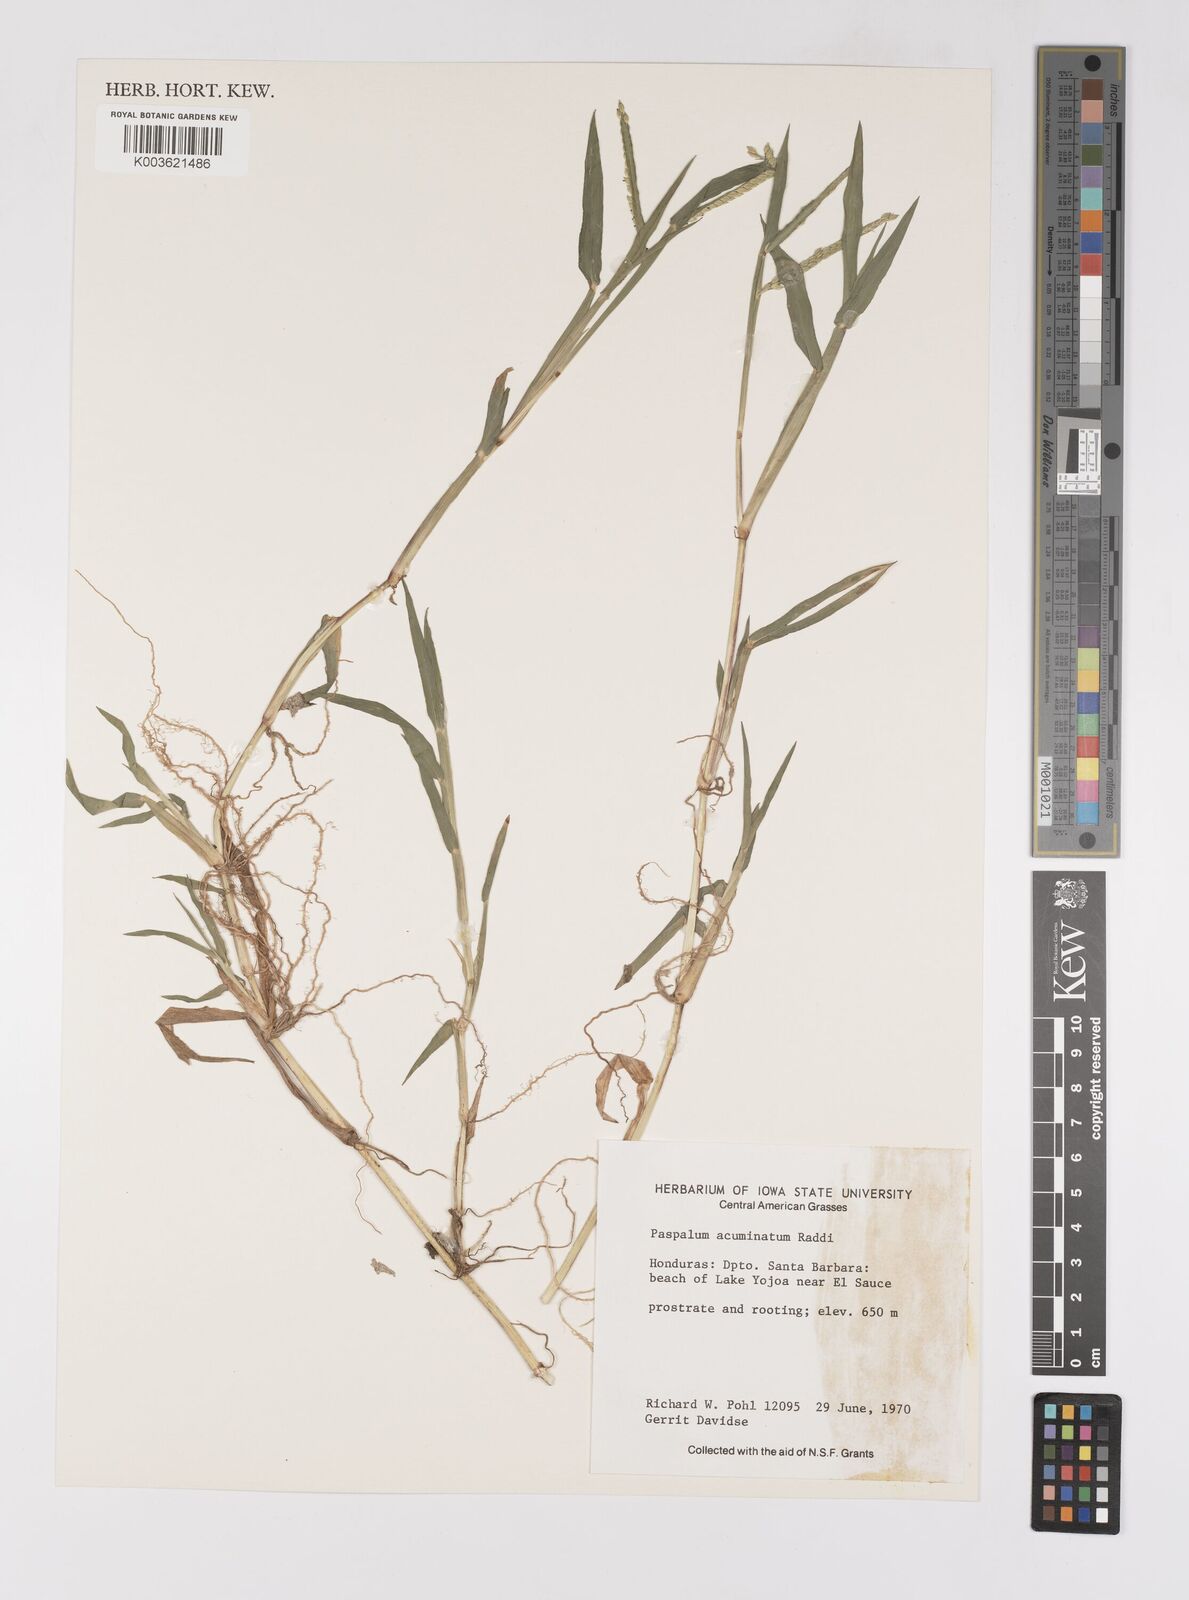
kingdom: Plantae
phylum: Tracheophyta
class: Liliopsida
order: Poales
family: Poaceae
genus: Paspalum
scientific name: Paspalum acuminatum
